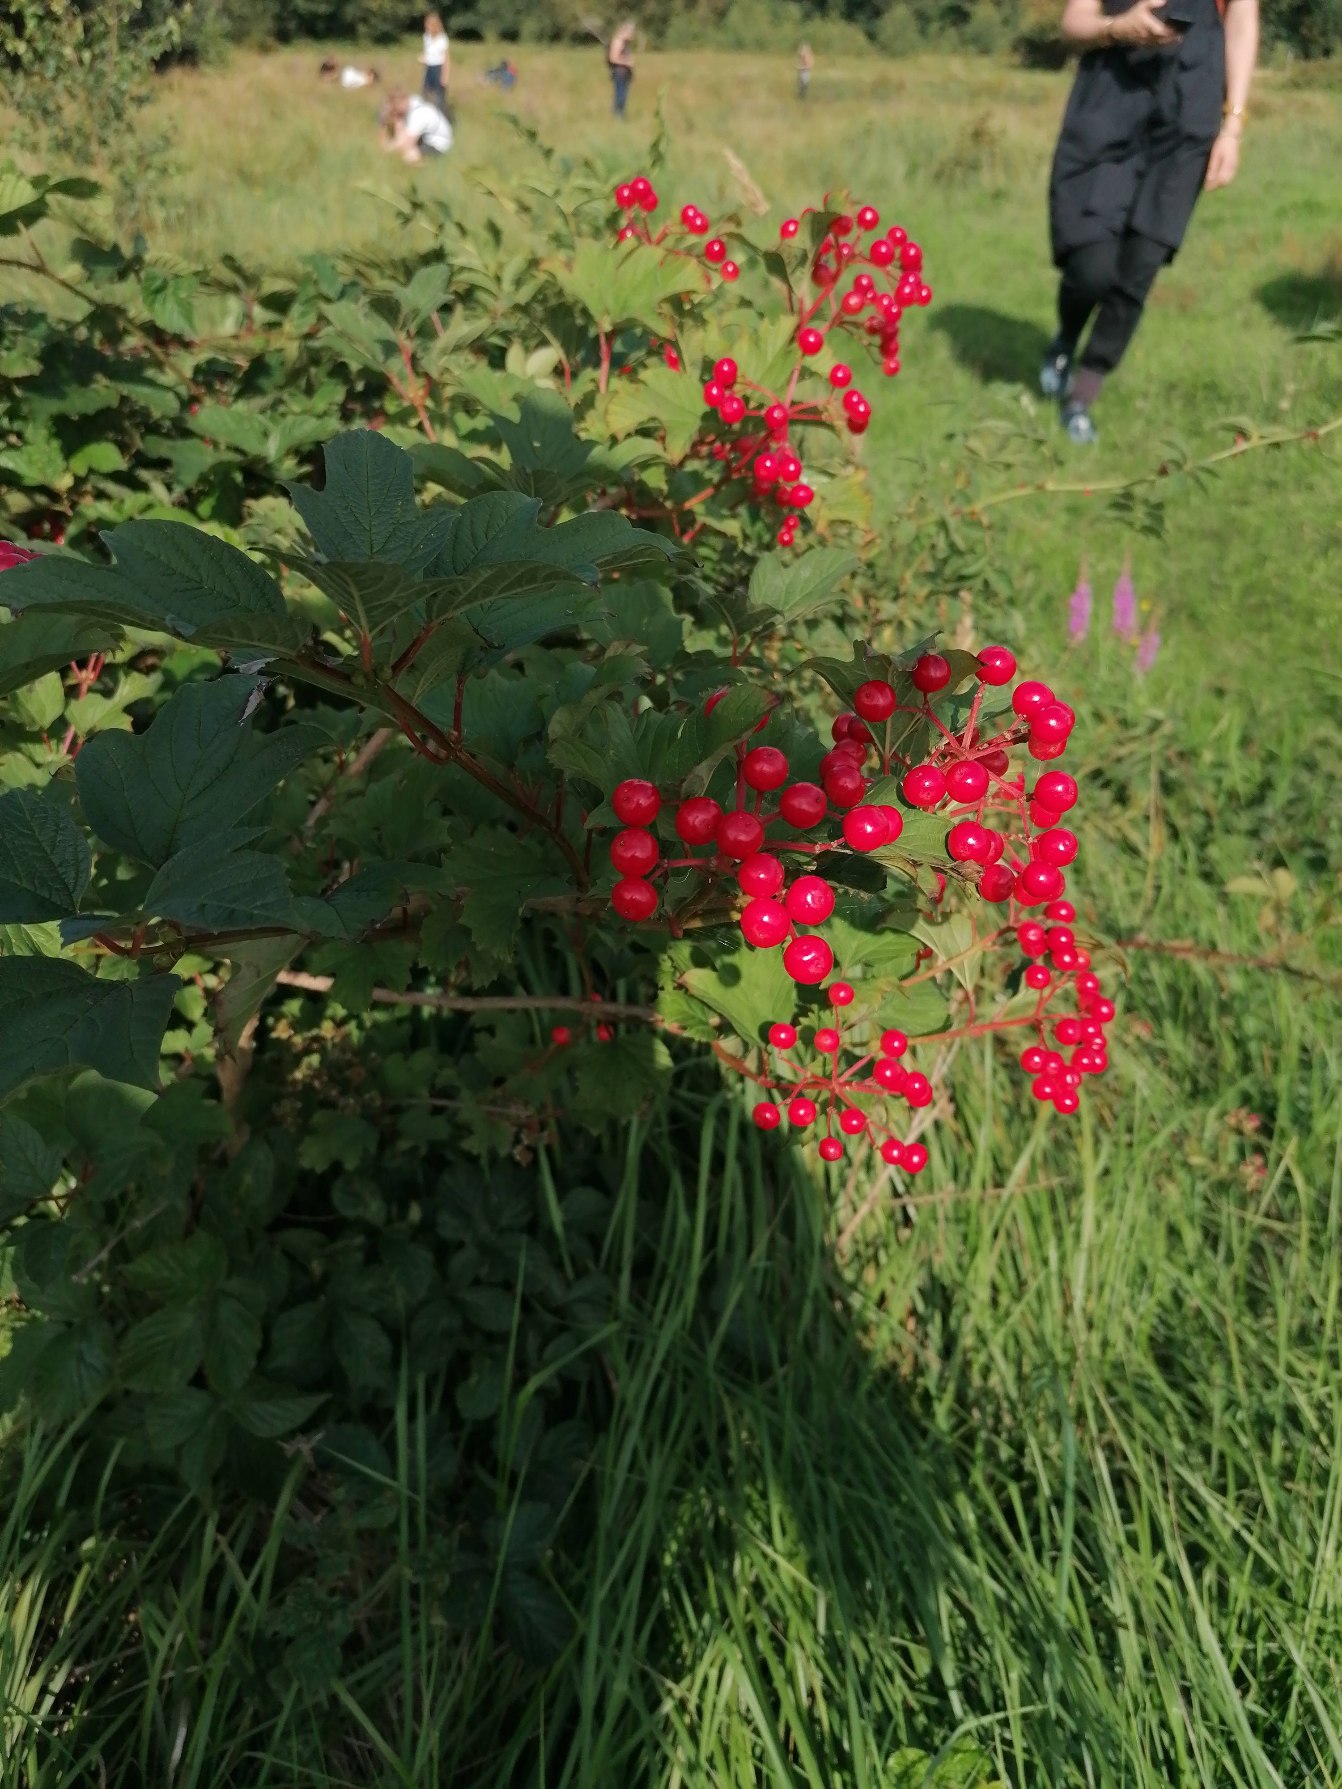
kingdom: Plantae
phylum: Tracheophyta
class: Magnoliopsida
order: Dipsacales
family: Viburnaceae
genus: Viburnum
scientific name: Viburnum opulus
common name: Kvalkved
